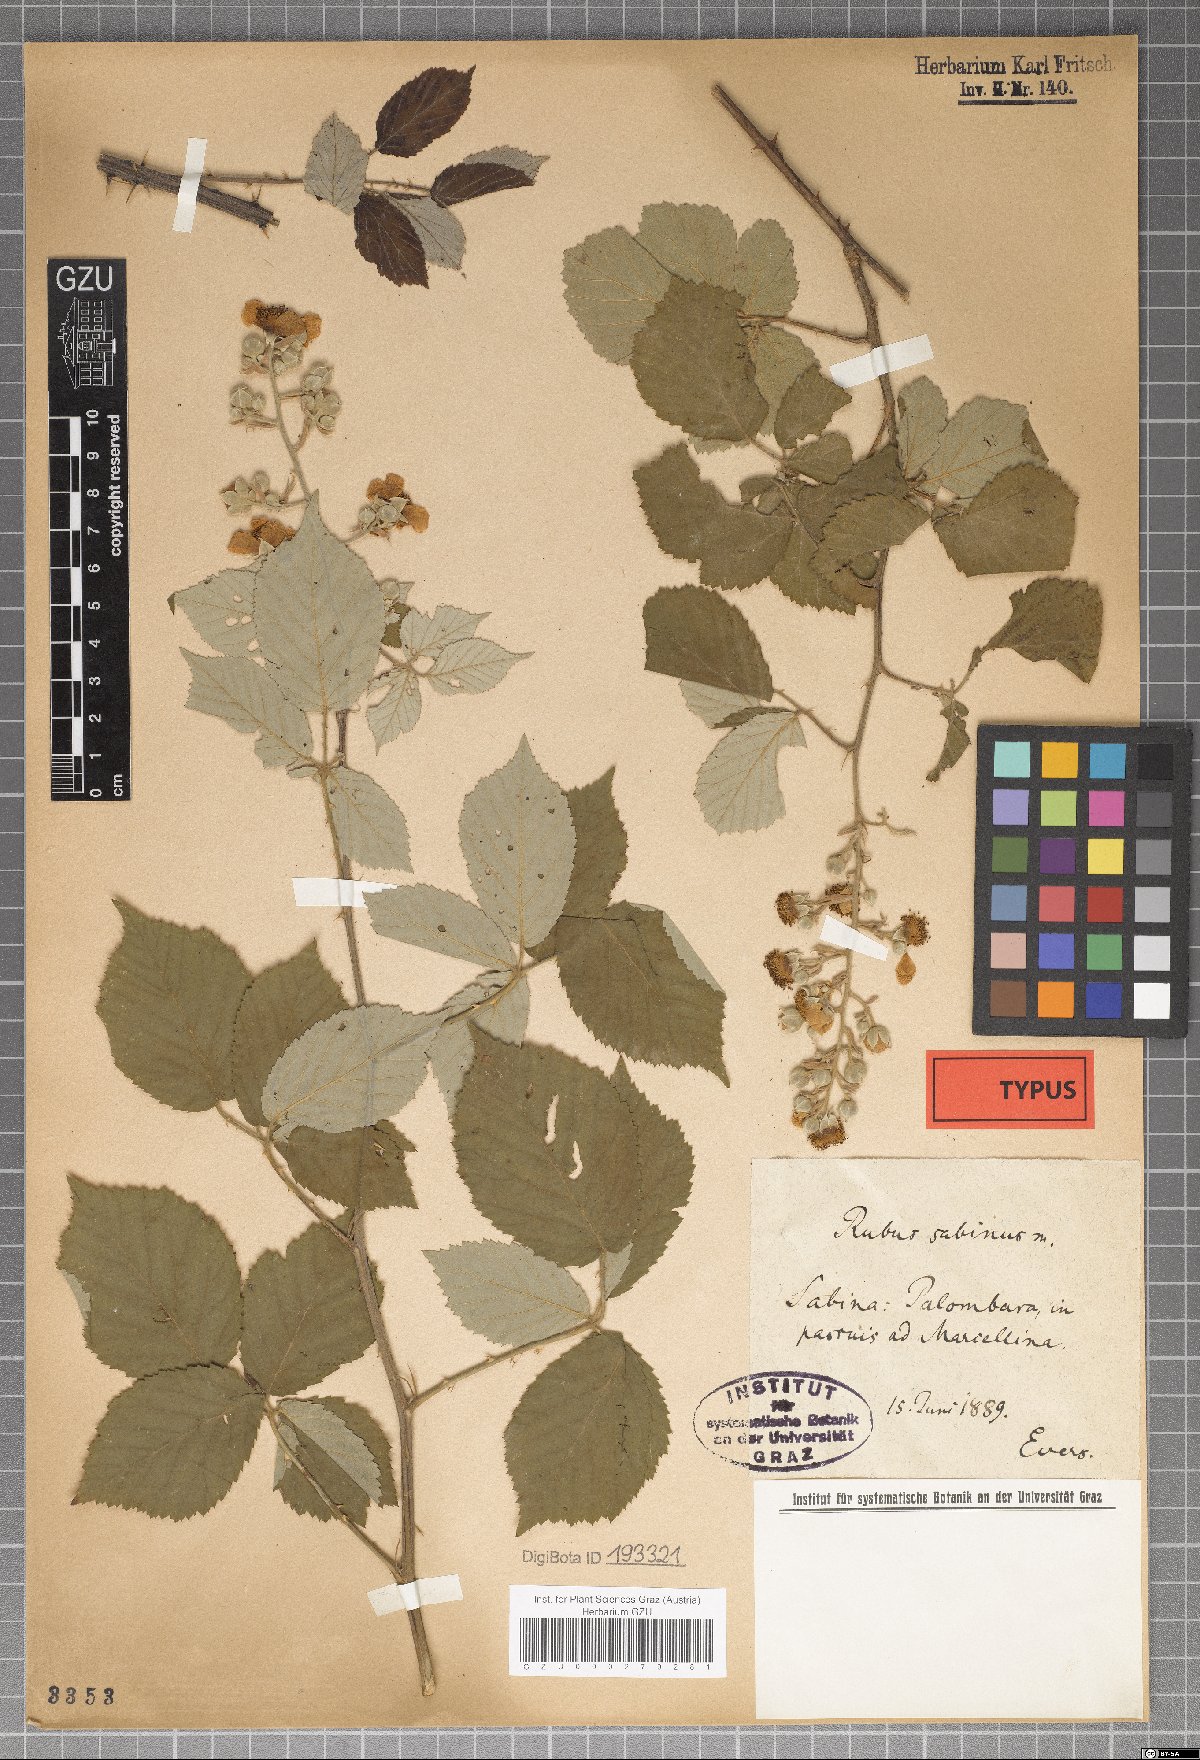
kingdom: Plantae
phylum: Tracheophyta
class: Magnoliopsida
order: Rosales
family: Rosaceae
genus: Rubus
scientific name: Rubus sabinus
